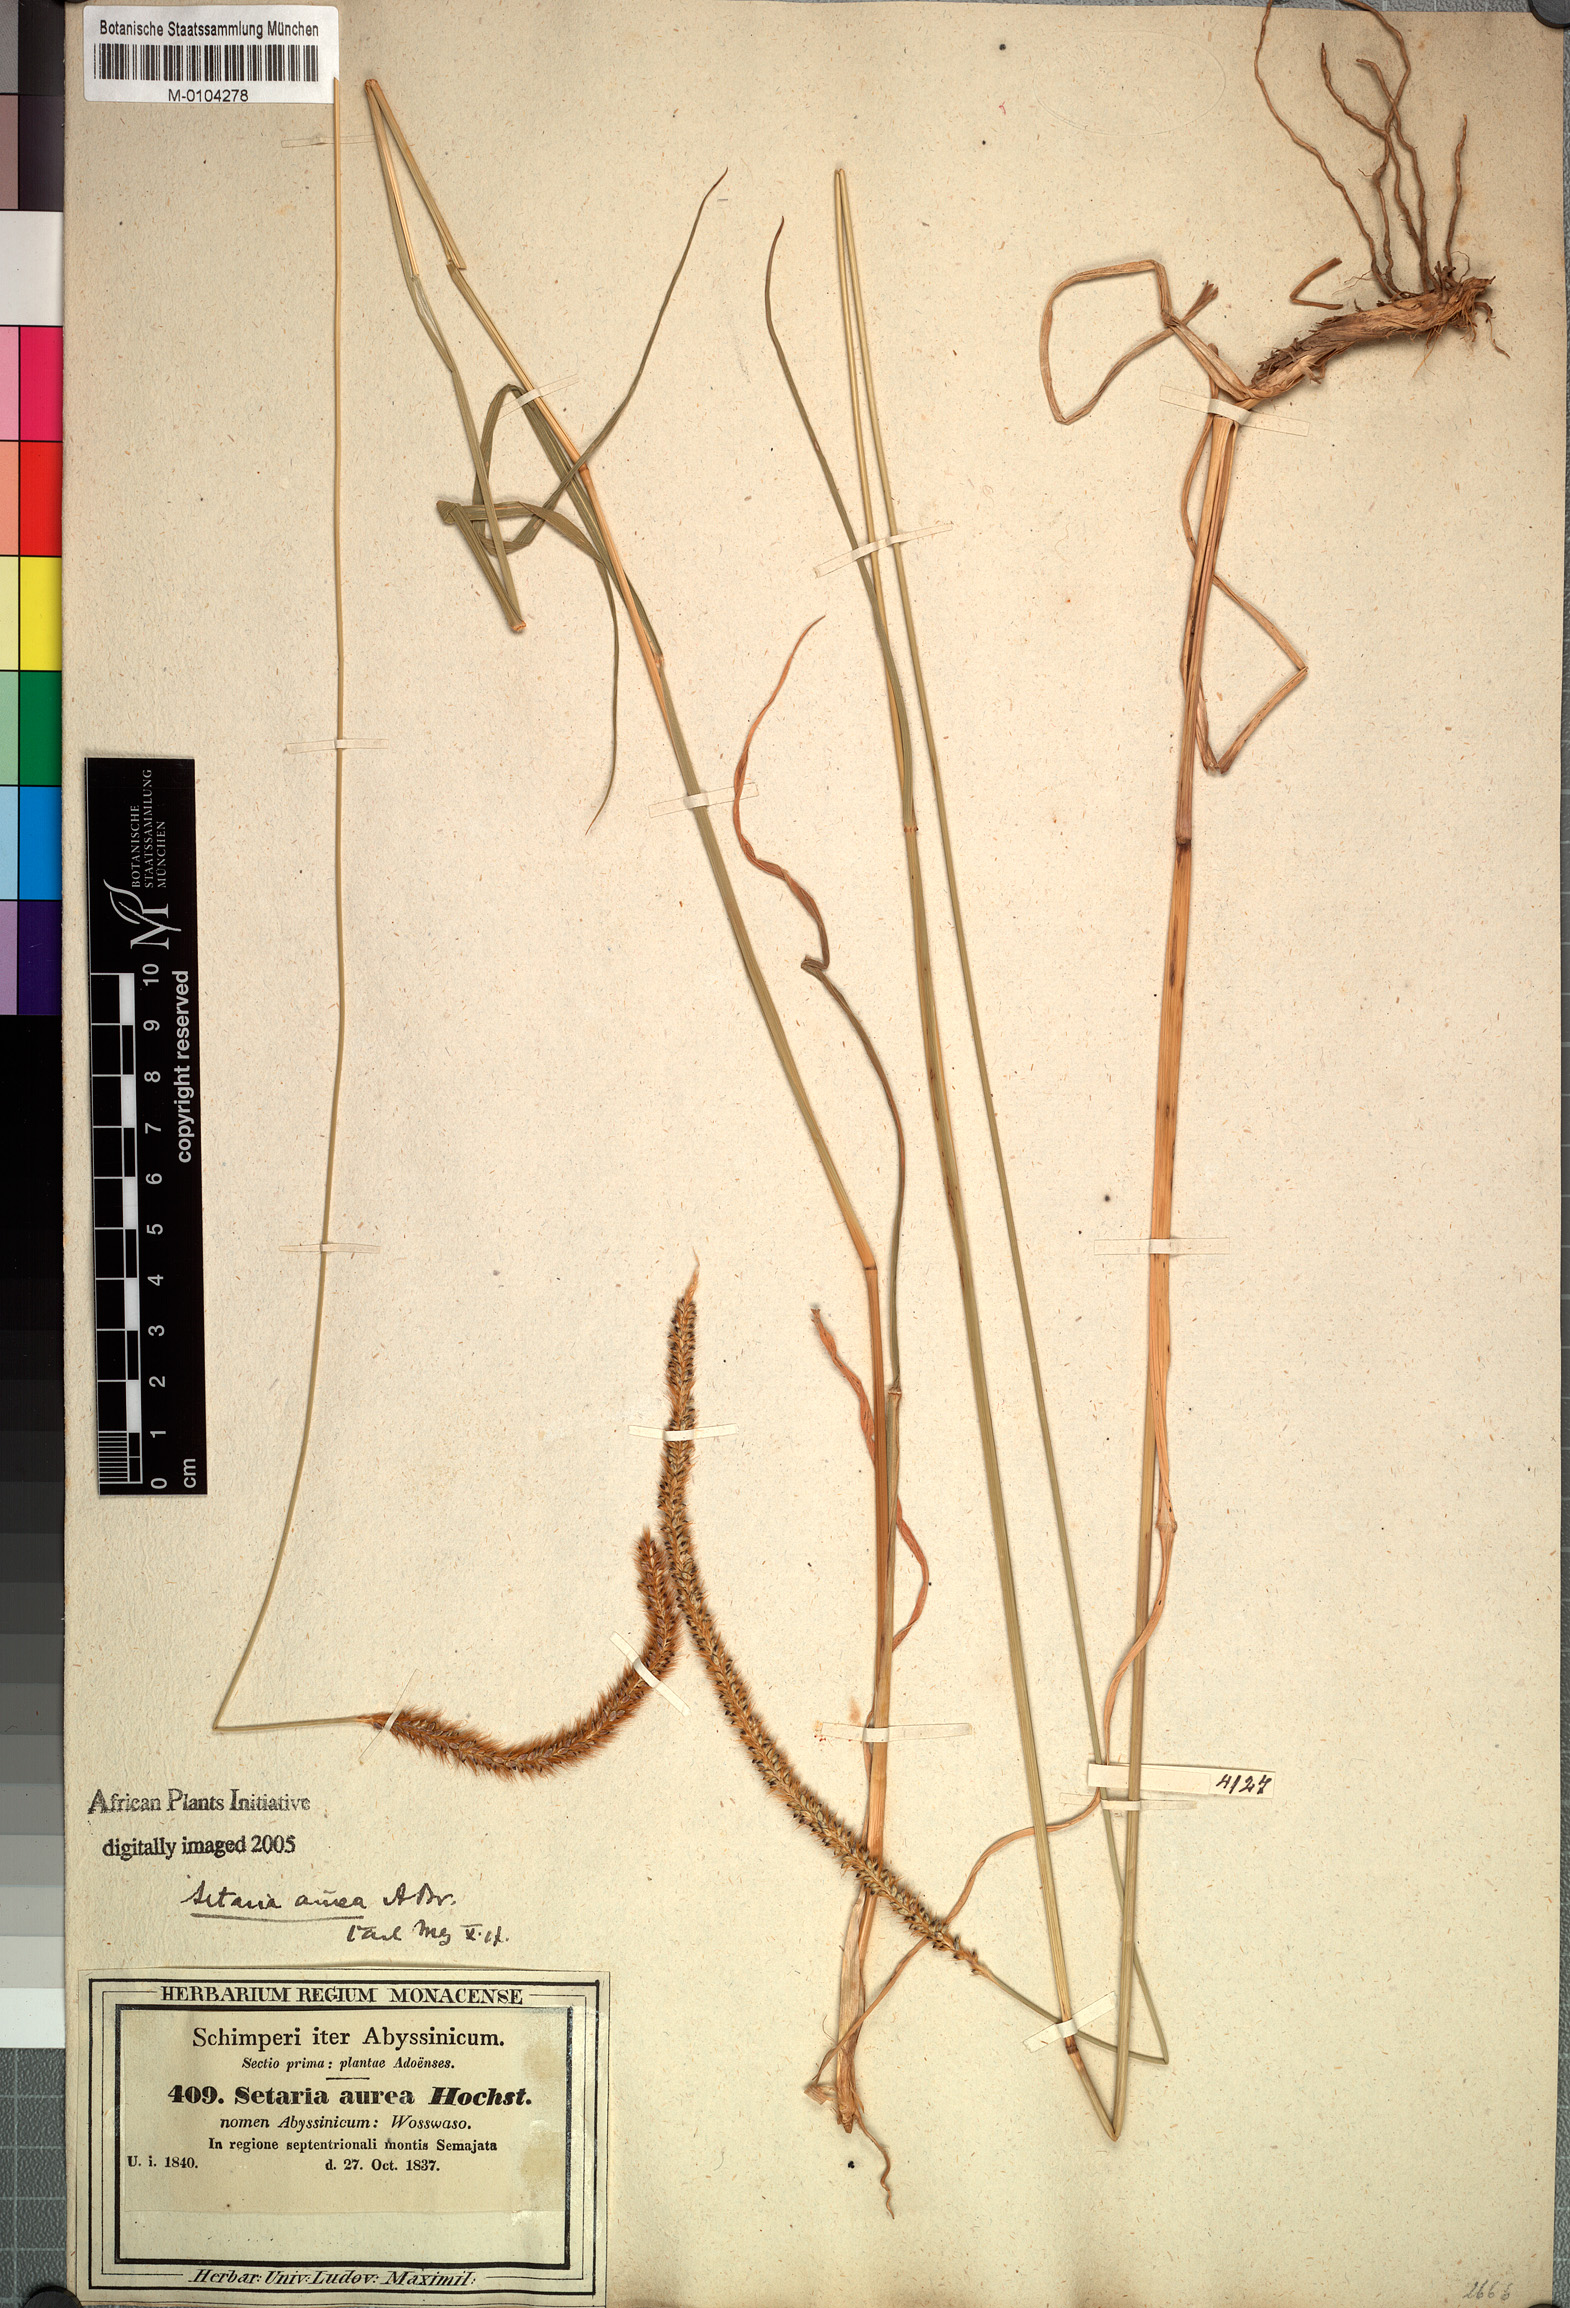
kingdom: Plantae
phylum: Tracheophyta
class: Liliopsida
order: Poales
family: Poaceae
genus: Setaria
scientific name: Setaria sphacelata
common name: African bristlegrass
